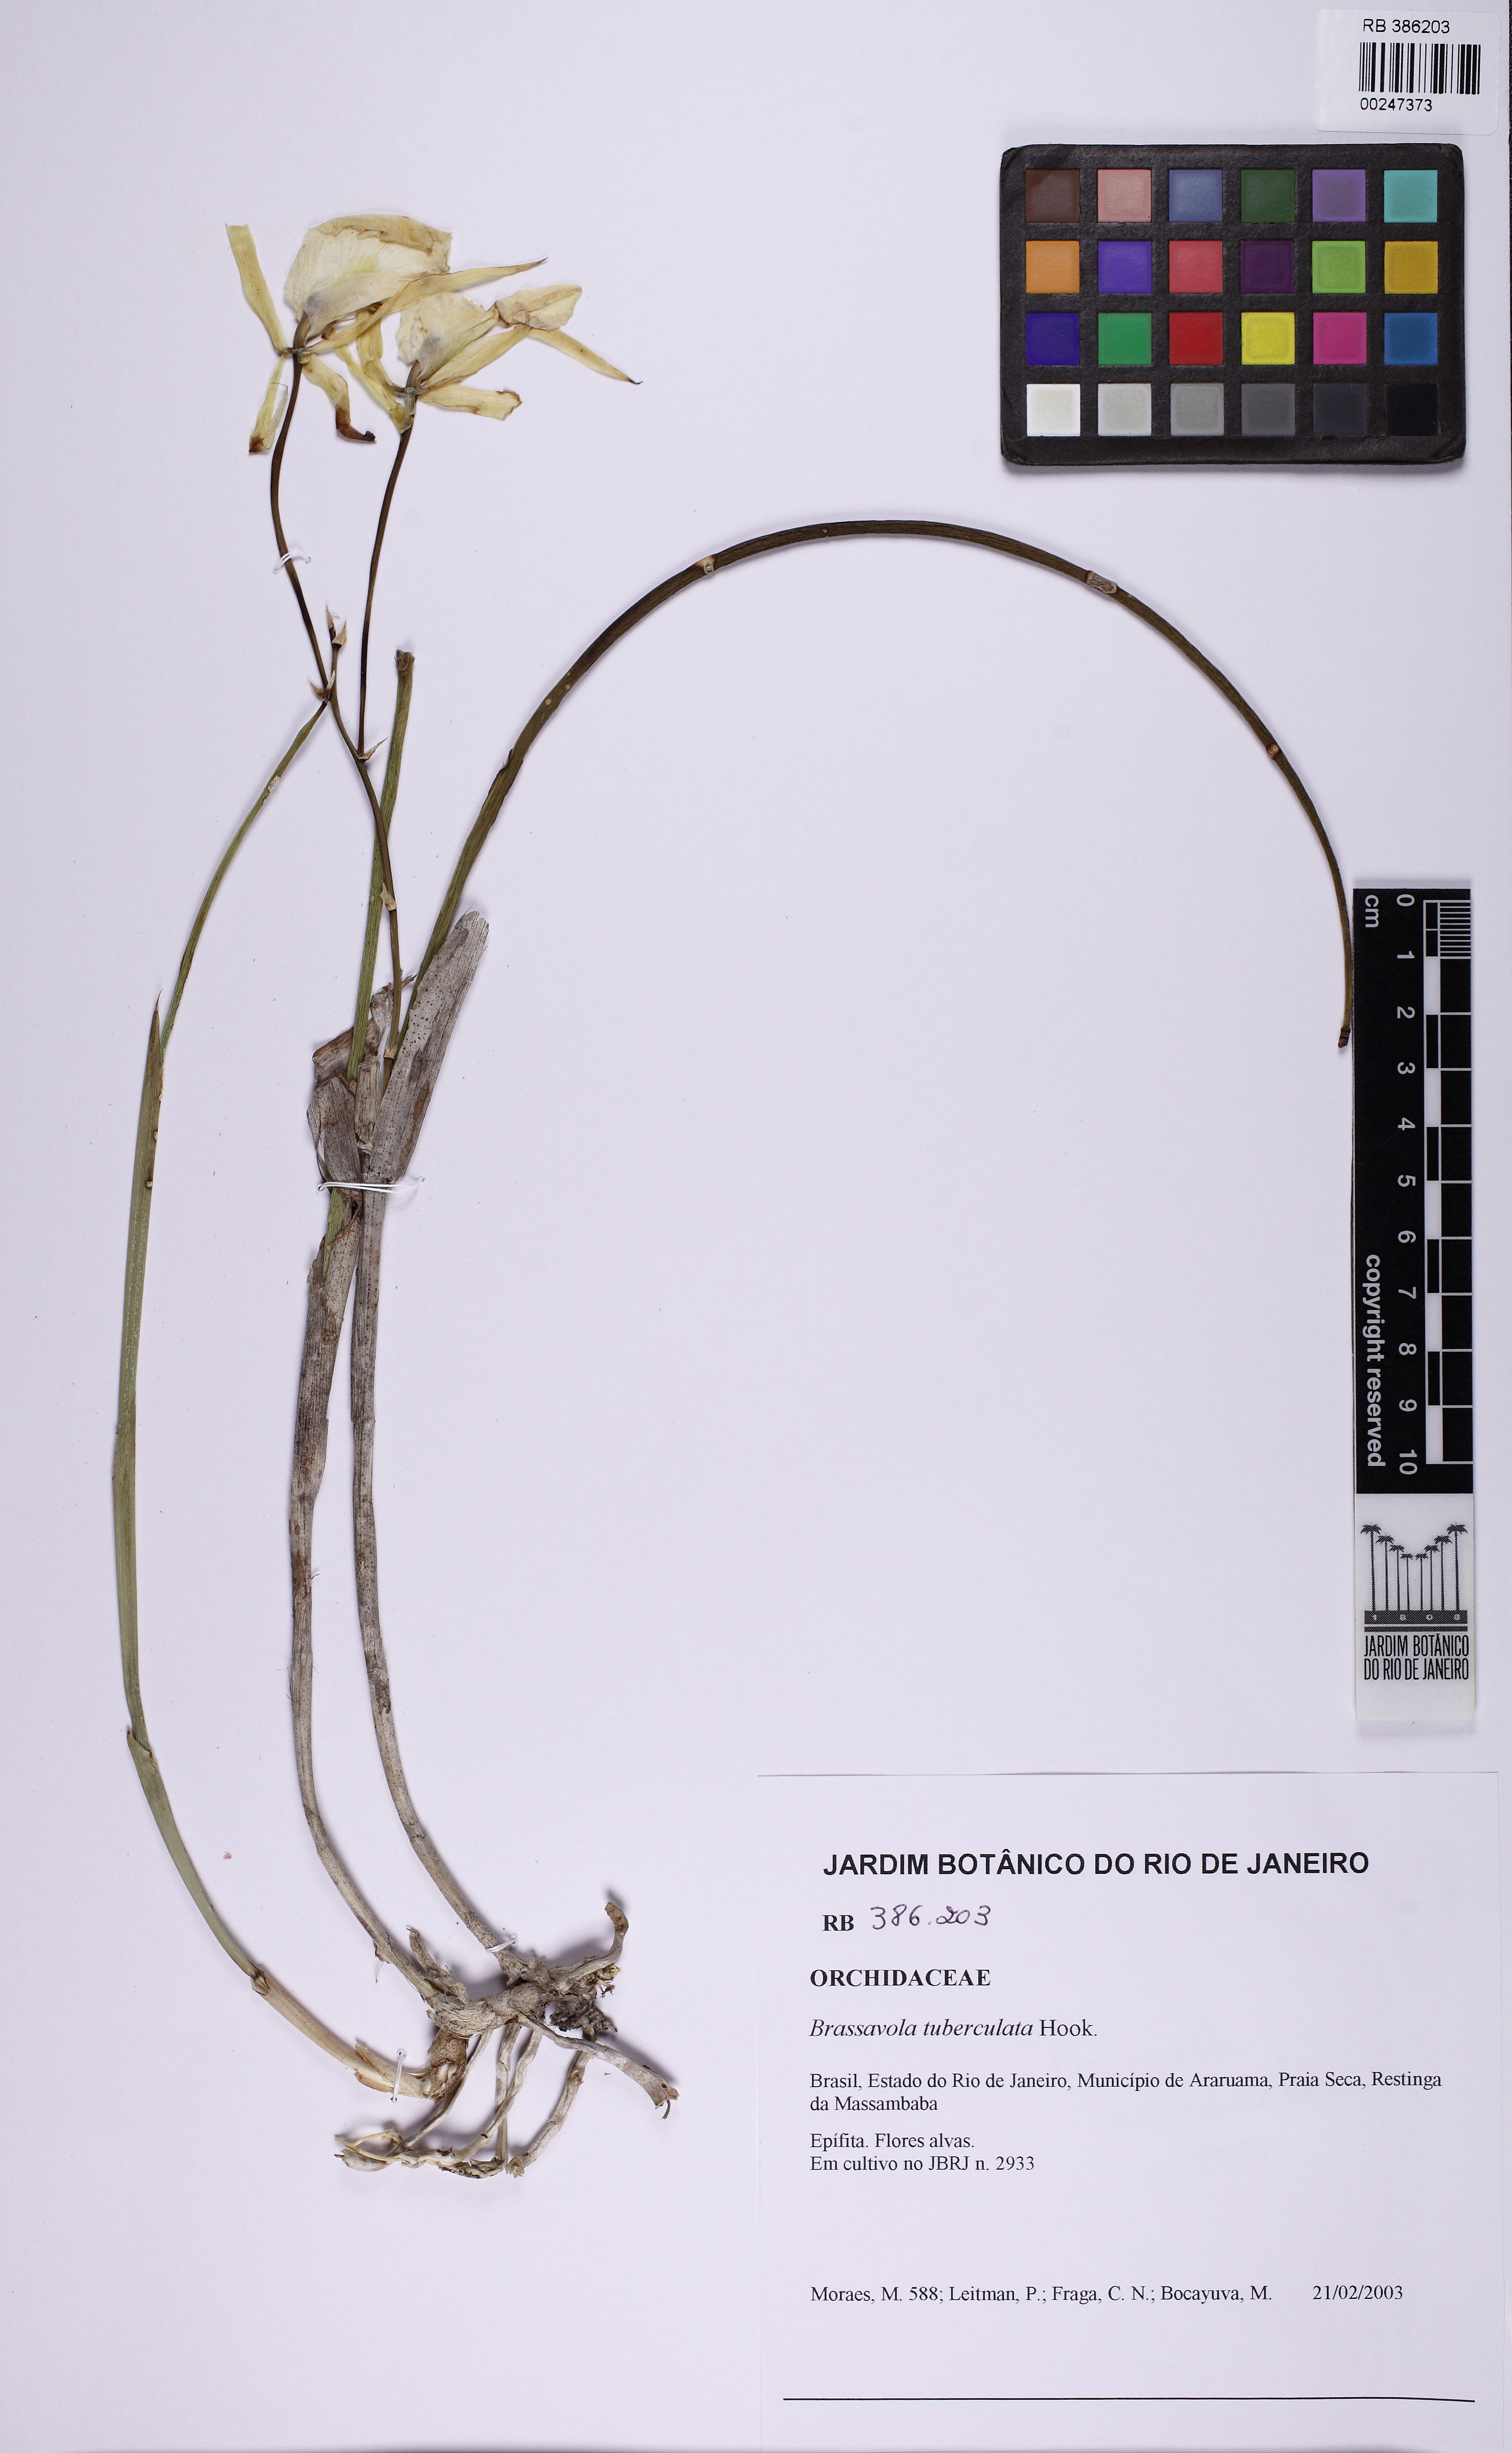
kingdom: Plantae
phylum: Tracheophyta
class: Liliopsida
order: Asparagales
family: Orchidaceae
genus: Brassavola
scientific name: Brassavola tuberculata
